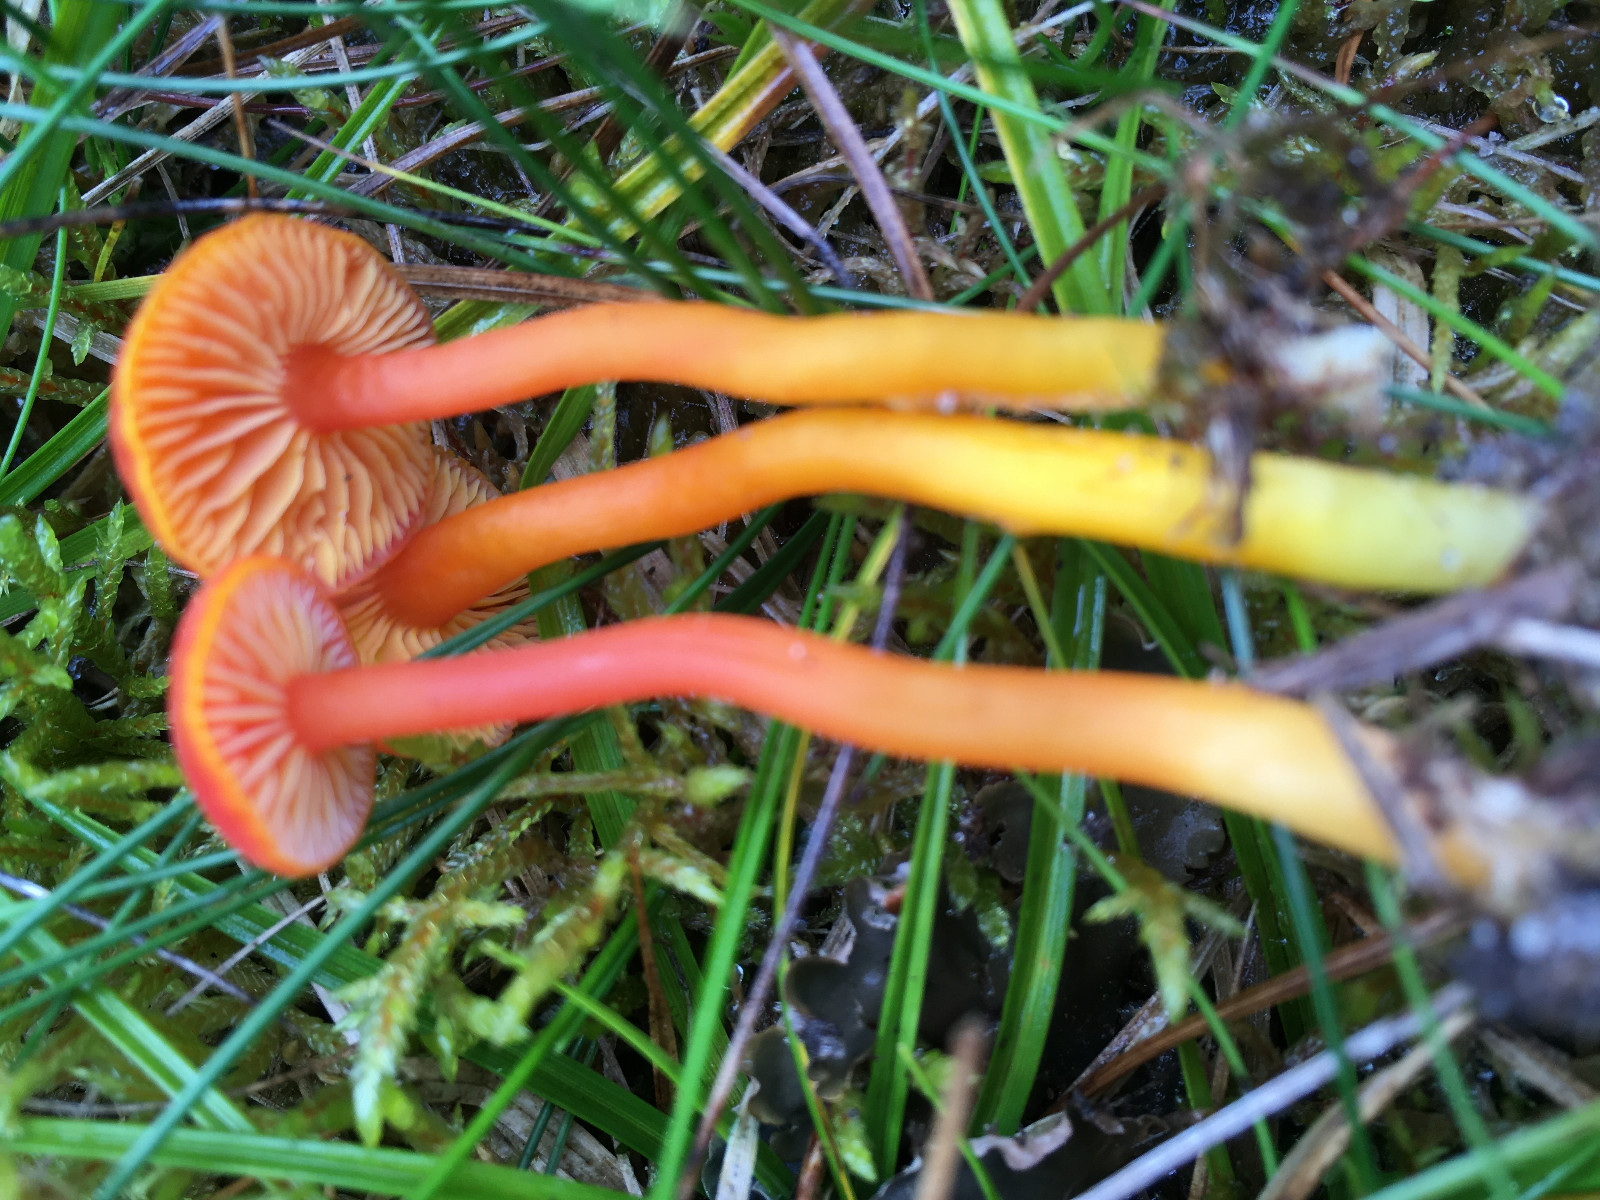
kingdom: Fungi
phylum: Basidiomycota
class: Agaricomycetes
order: Agaricales
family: Hygrophoraceae
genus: Hygrocybe
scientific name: Hygrocybe miniata
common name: mønje-vokshat
